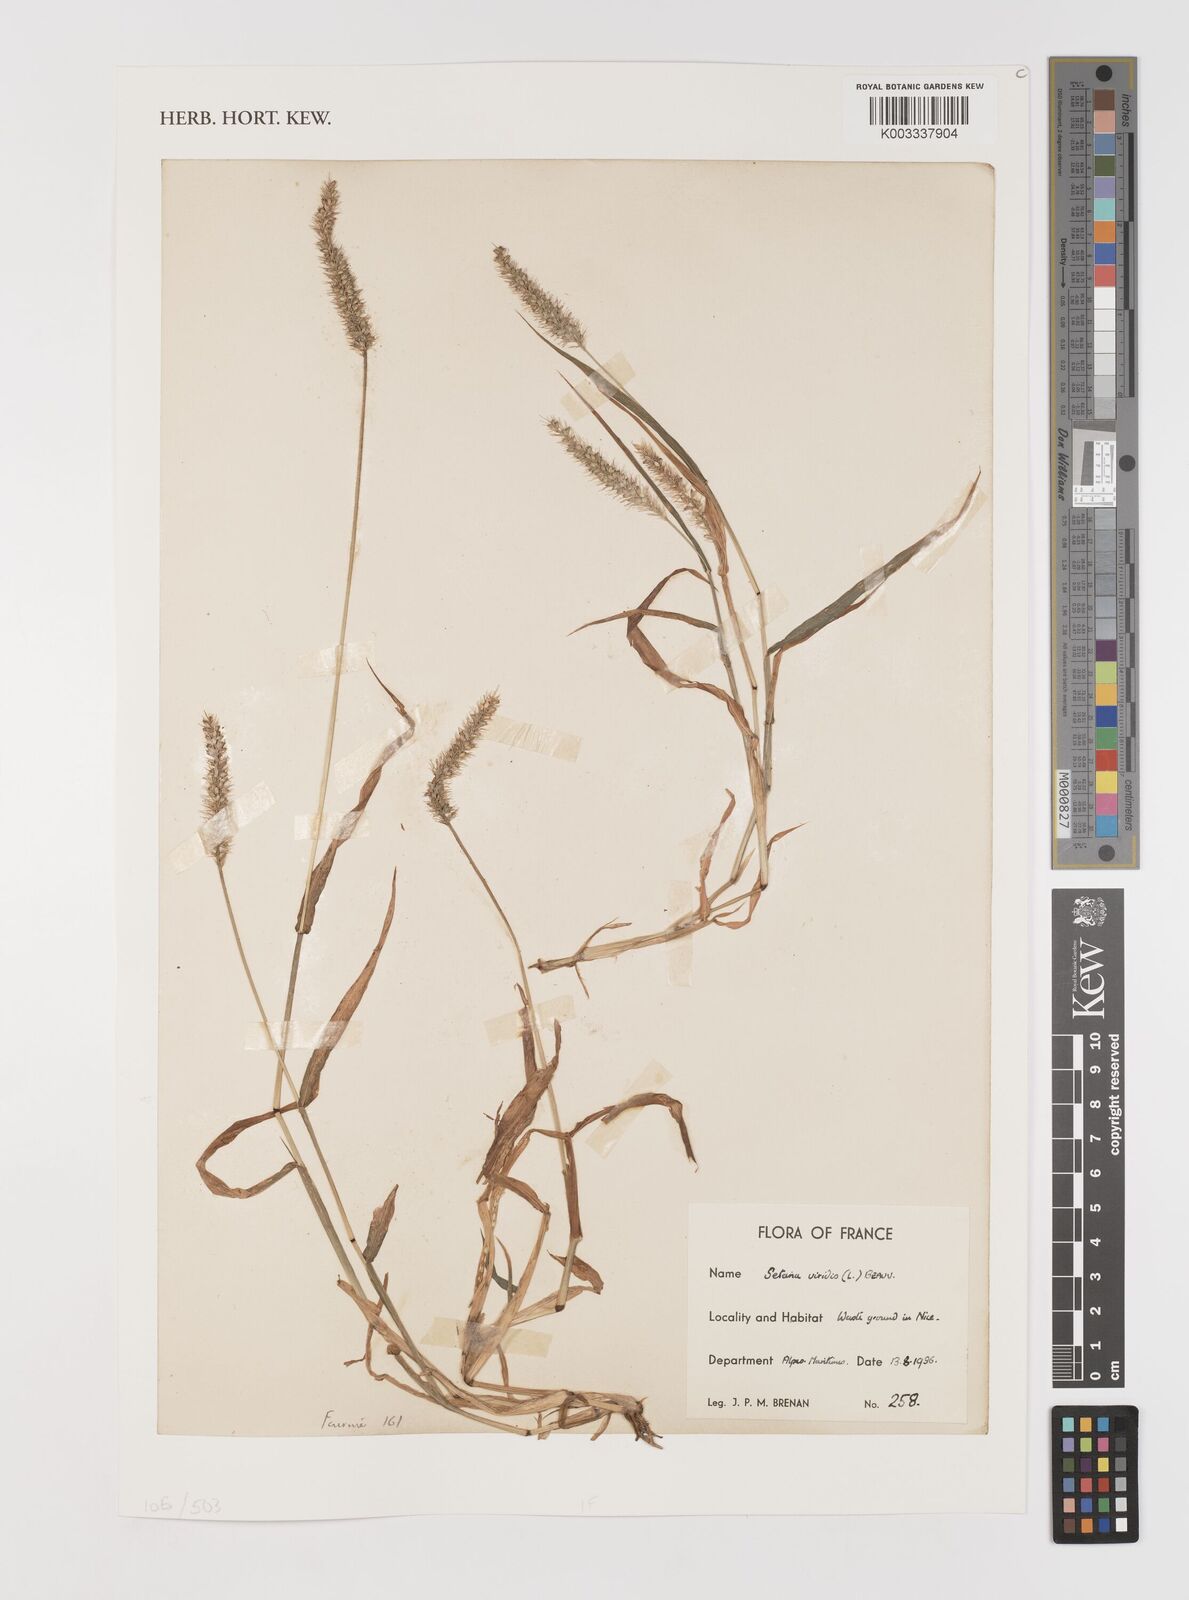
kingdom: Plantae
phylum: Tracheophyta
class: Liliopsida
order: Poales
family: Poaceae
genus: Setaria
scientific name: Setaria viridis
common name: Green bristlegrass
